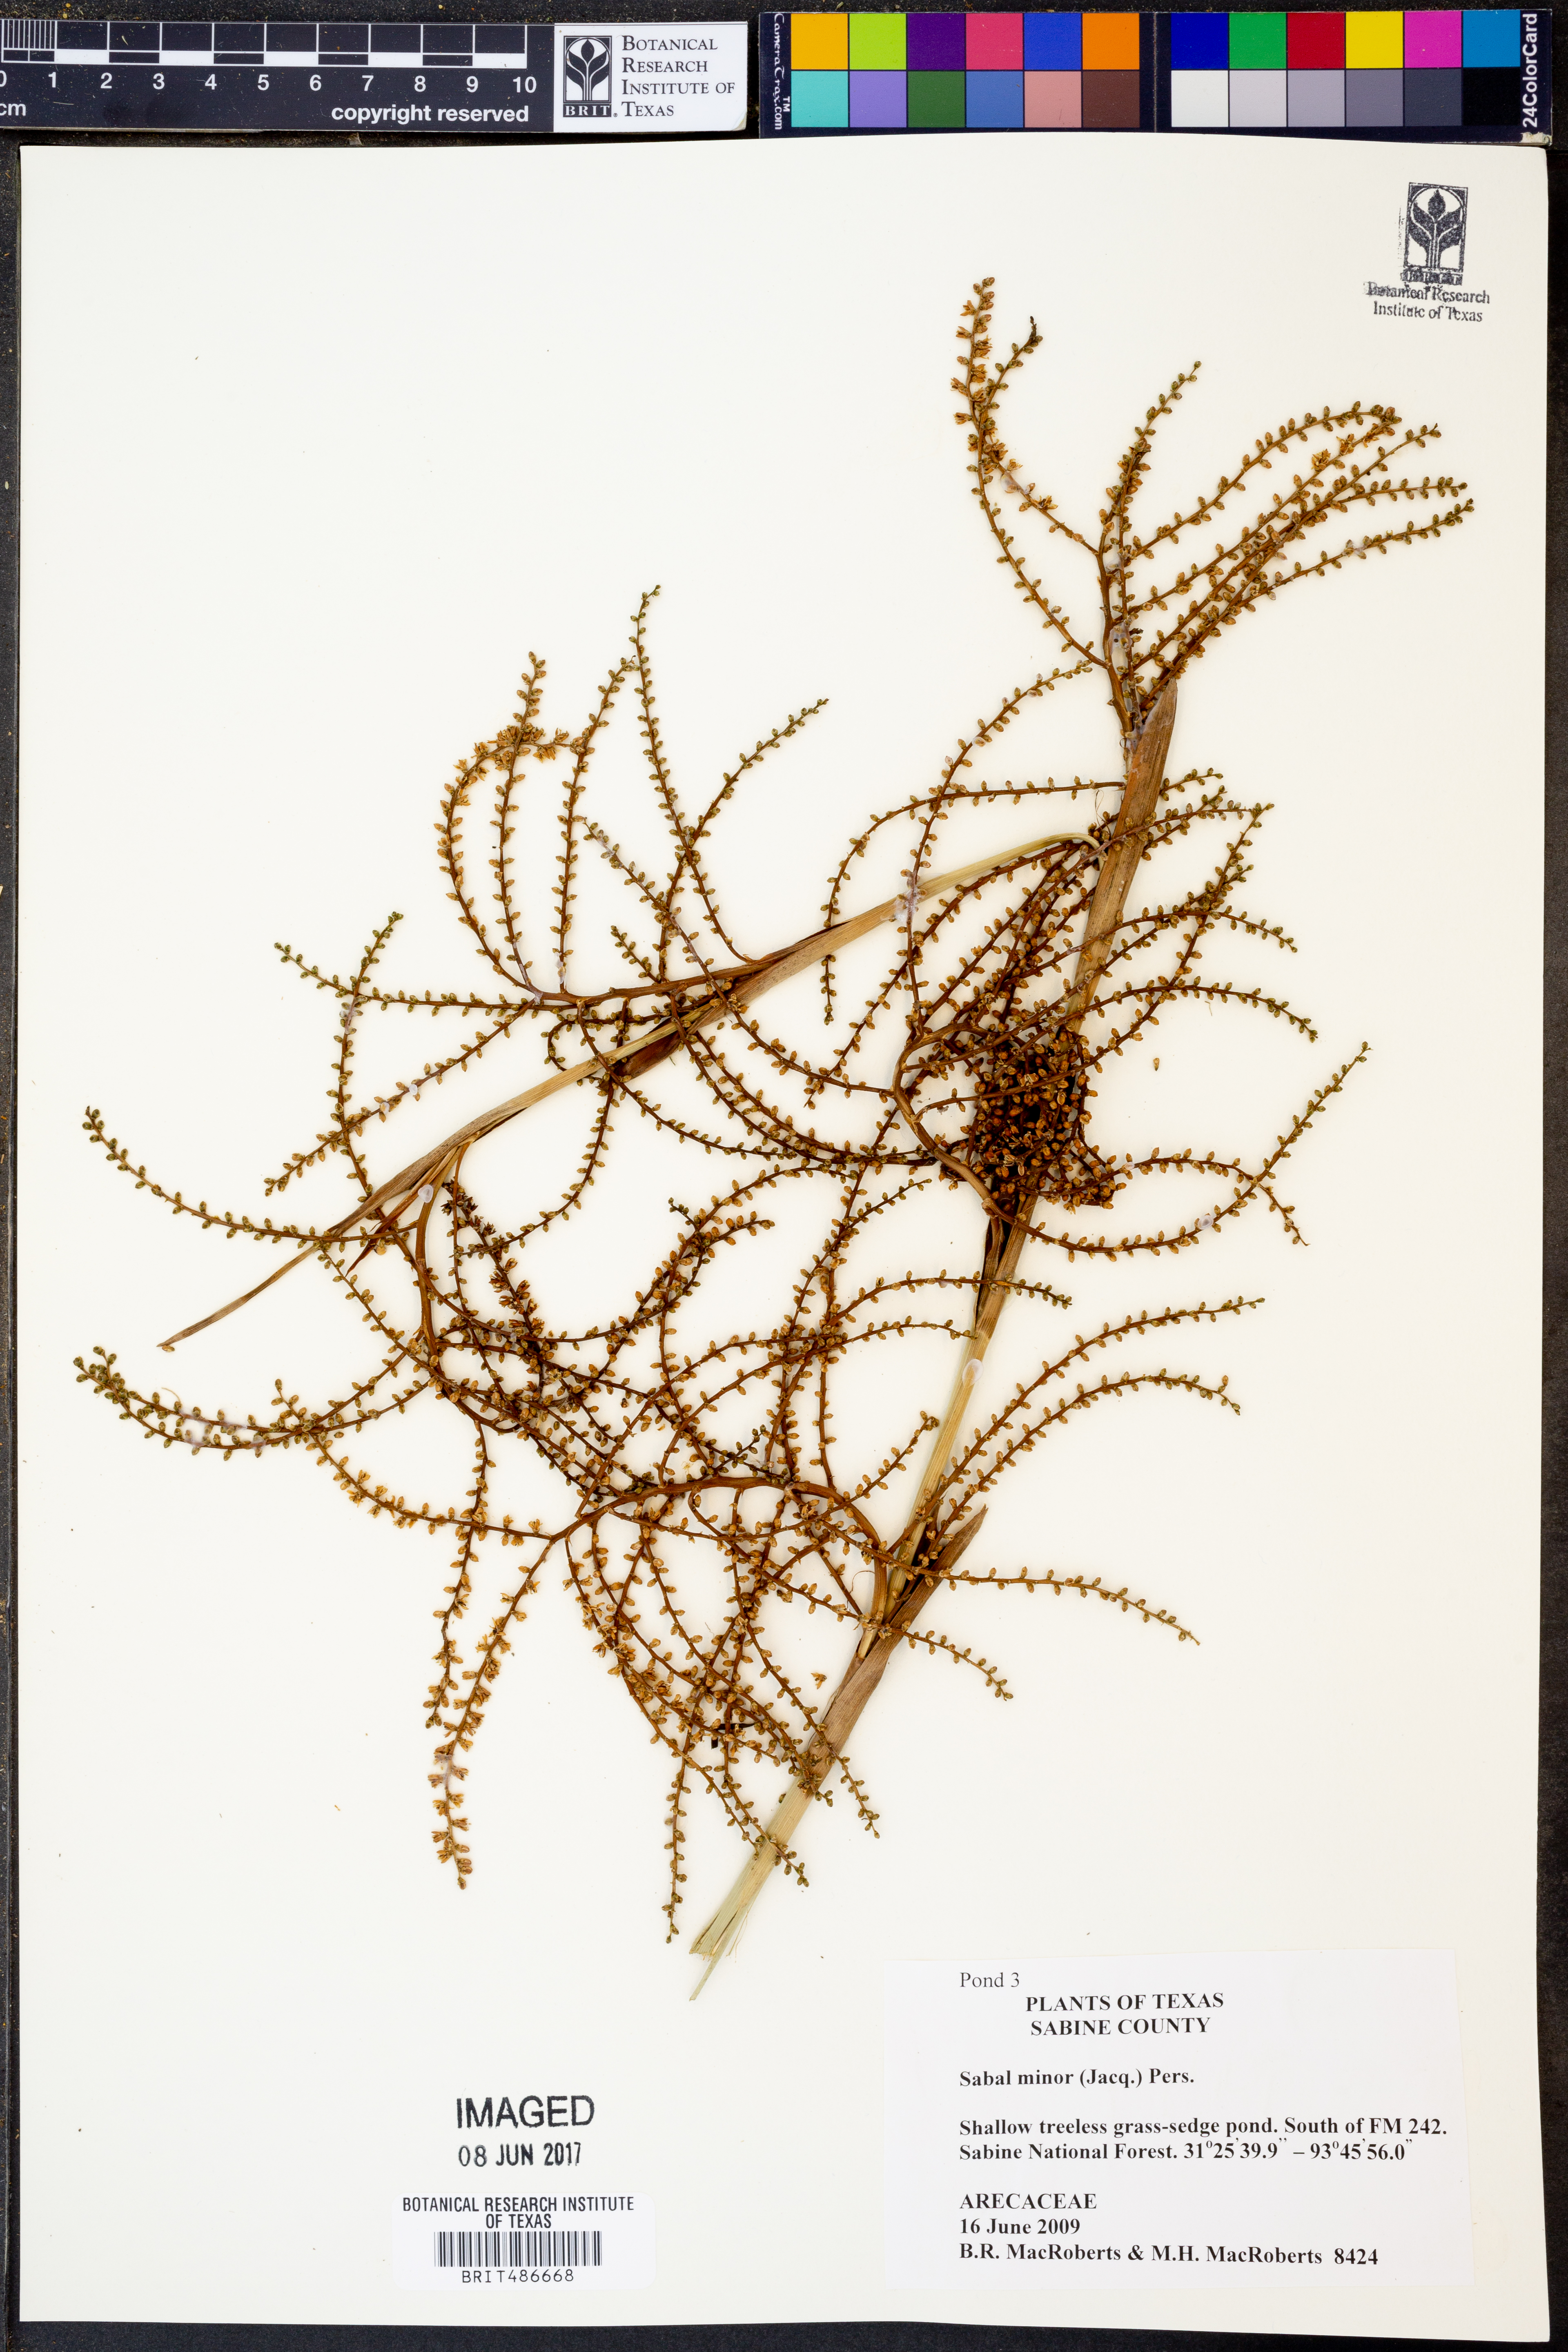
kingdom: Plantae
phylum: Tracheophyta
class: Liliopsida
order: Arecales
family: Arecaceae
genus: Sabal
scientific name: Sabal minor
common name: Dwarf palmetto
